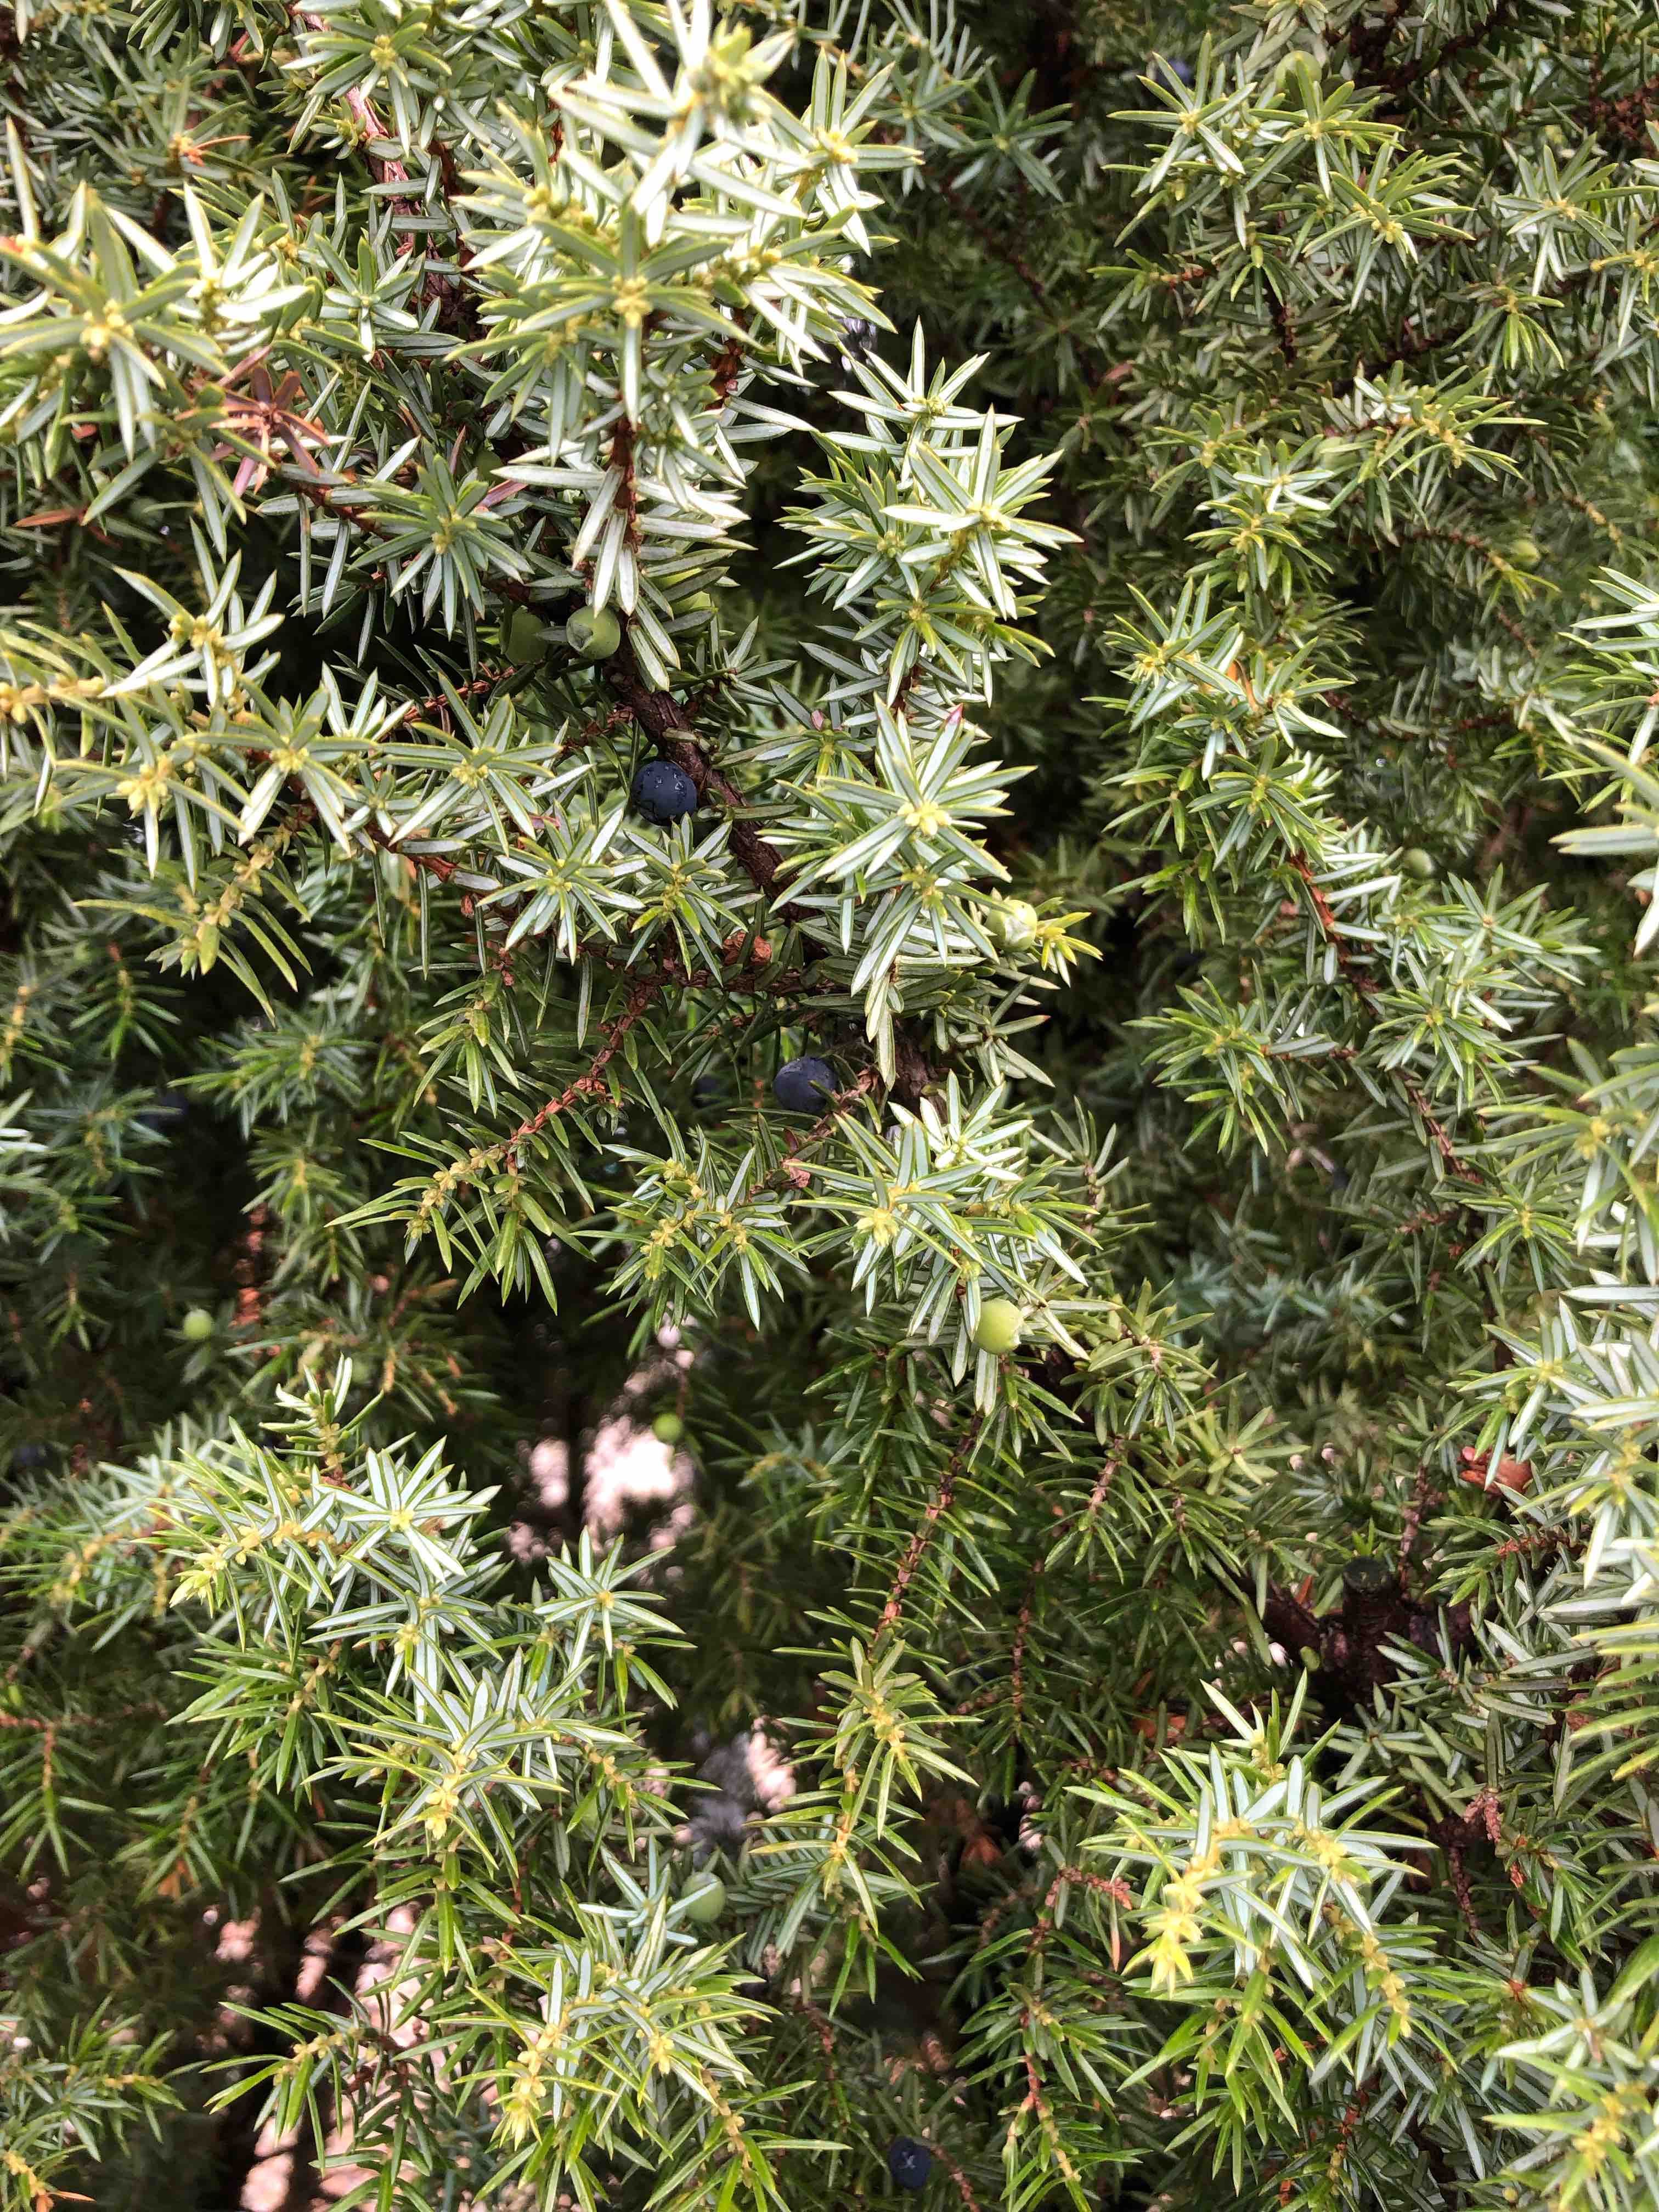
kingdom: Fungi
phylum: Basidiomycota
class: Pucciniomycetes
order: Pucciniales
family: Gymnosporangiaceae
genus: Gymnosporangium
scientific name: Gymnosporangium clavariiforme
